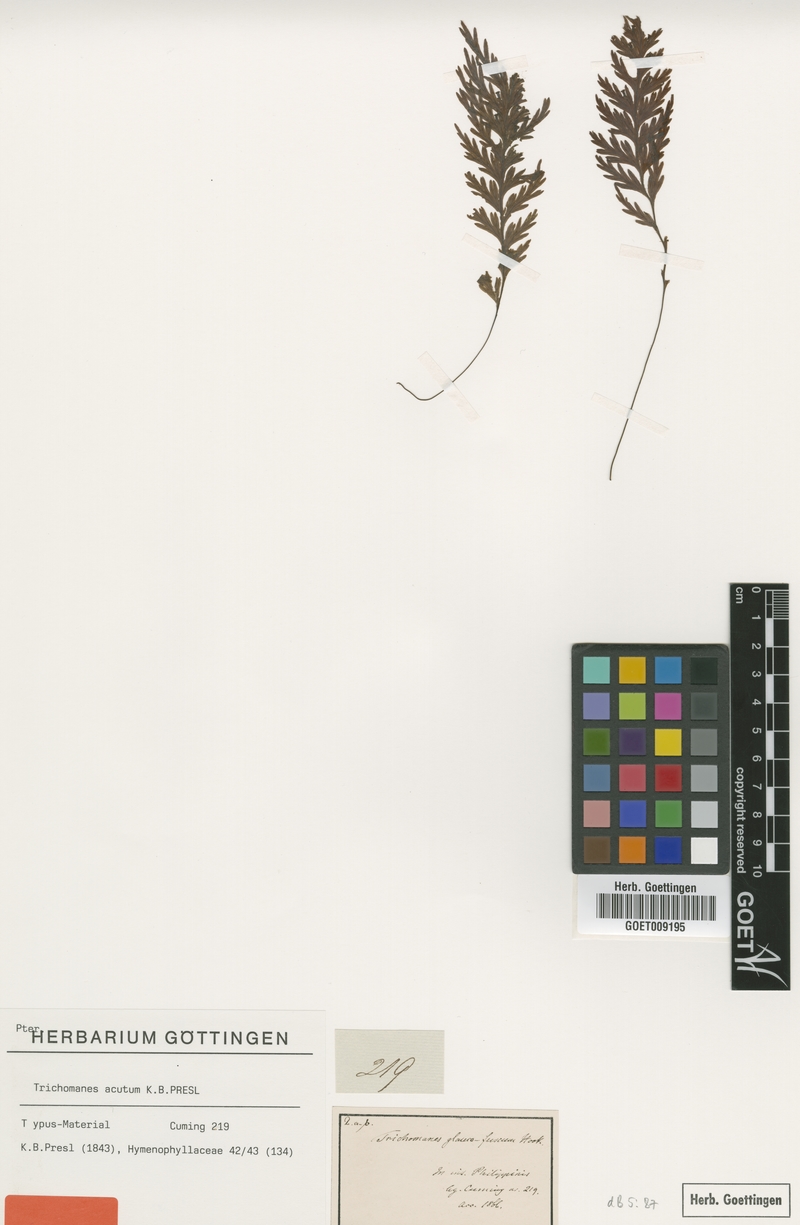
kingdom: Plantae
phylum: Tracheophyta
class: Polypodiopsida
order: Hymenophyllales
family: Hymenophyllaceae
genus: Hymenophyllum
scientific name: Hymenophyllum acutum
